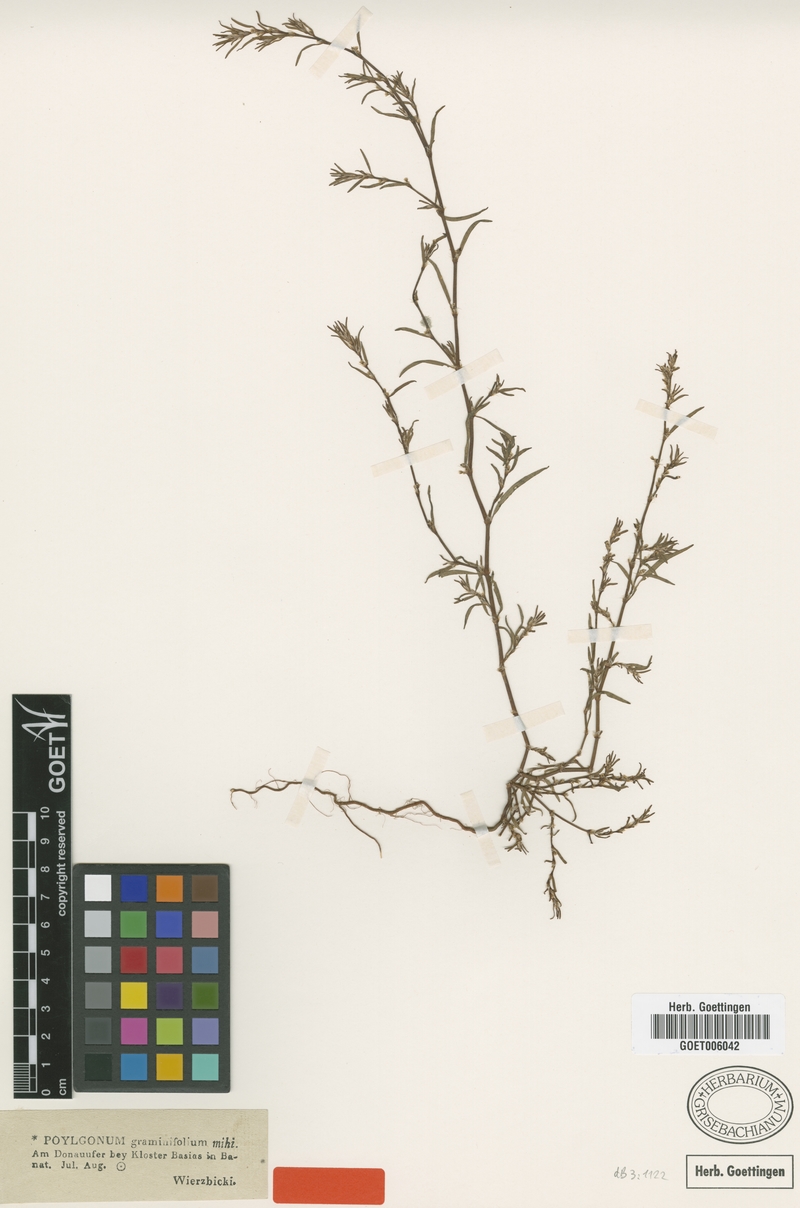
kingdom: Plantae
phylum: Tracheophyta
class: Magnoliopsida
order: Caryophyllales
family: Polygonaceae
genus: Polygonum
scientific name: Polygonum graminifolium
